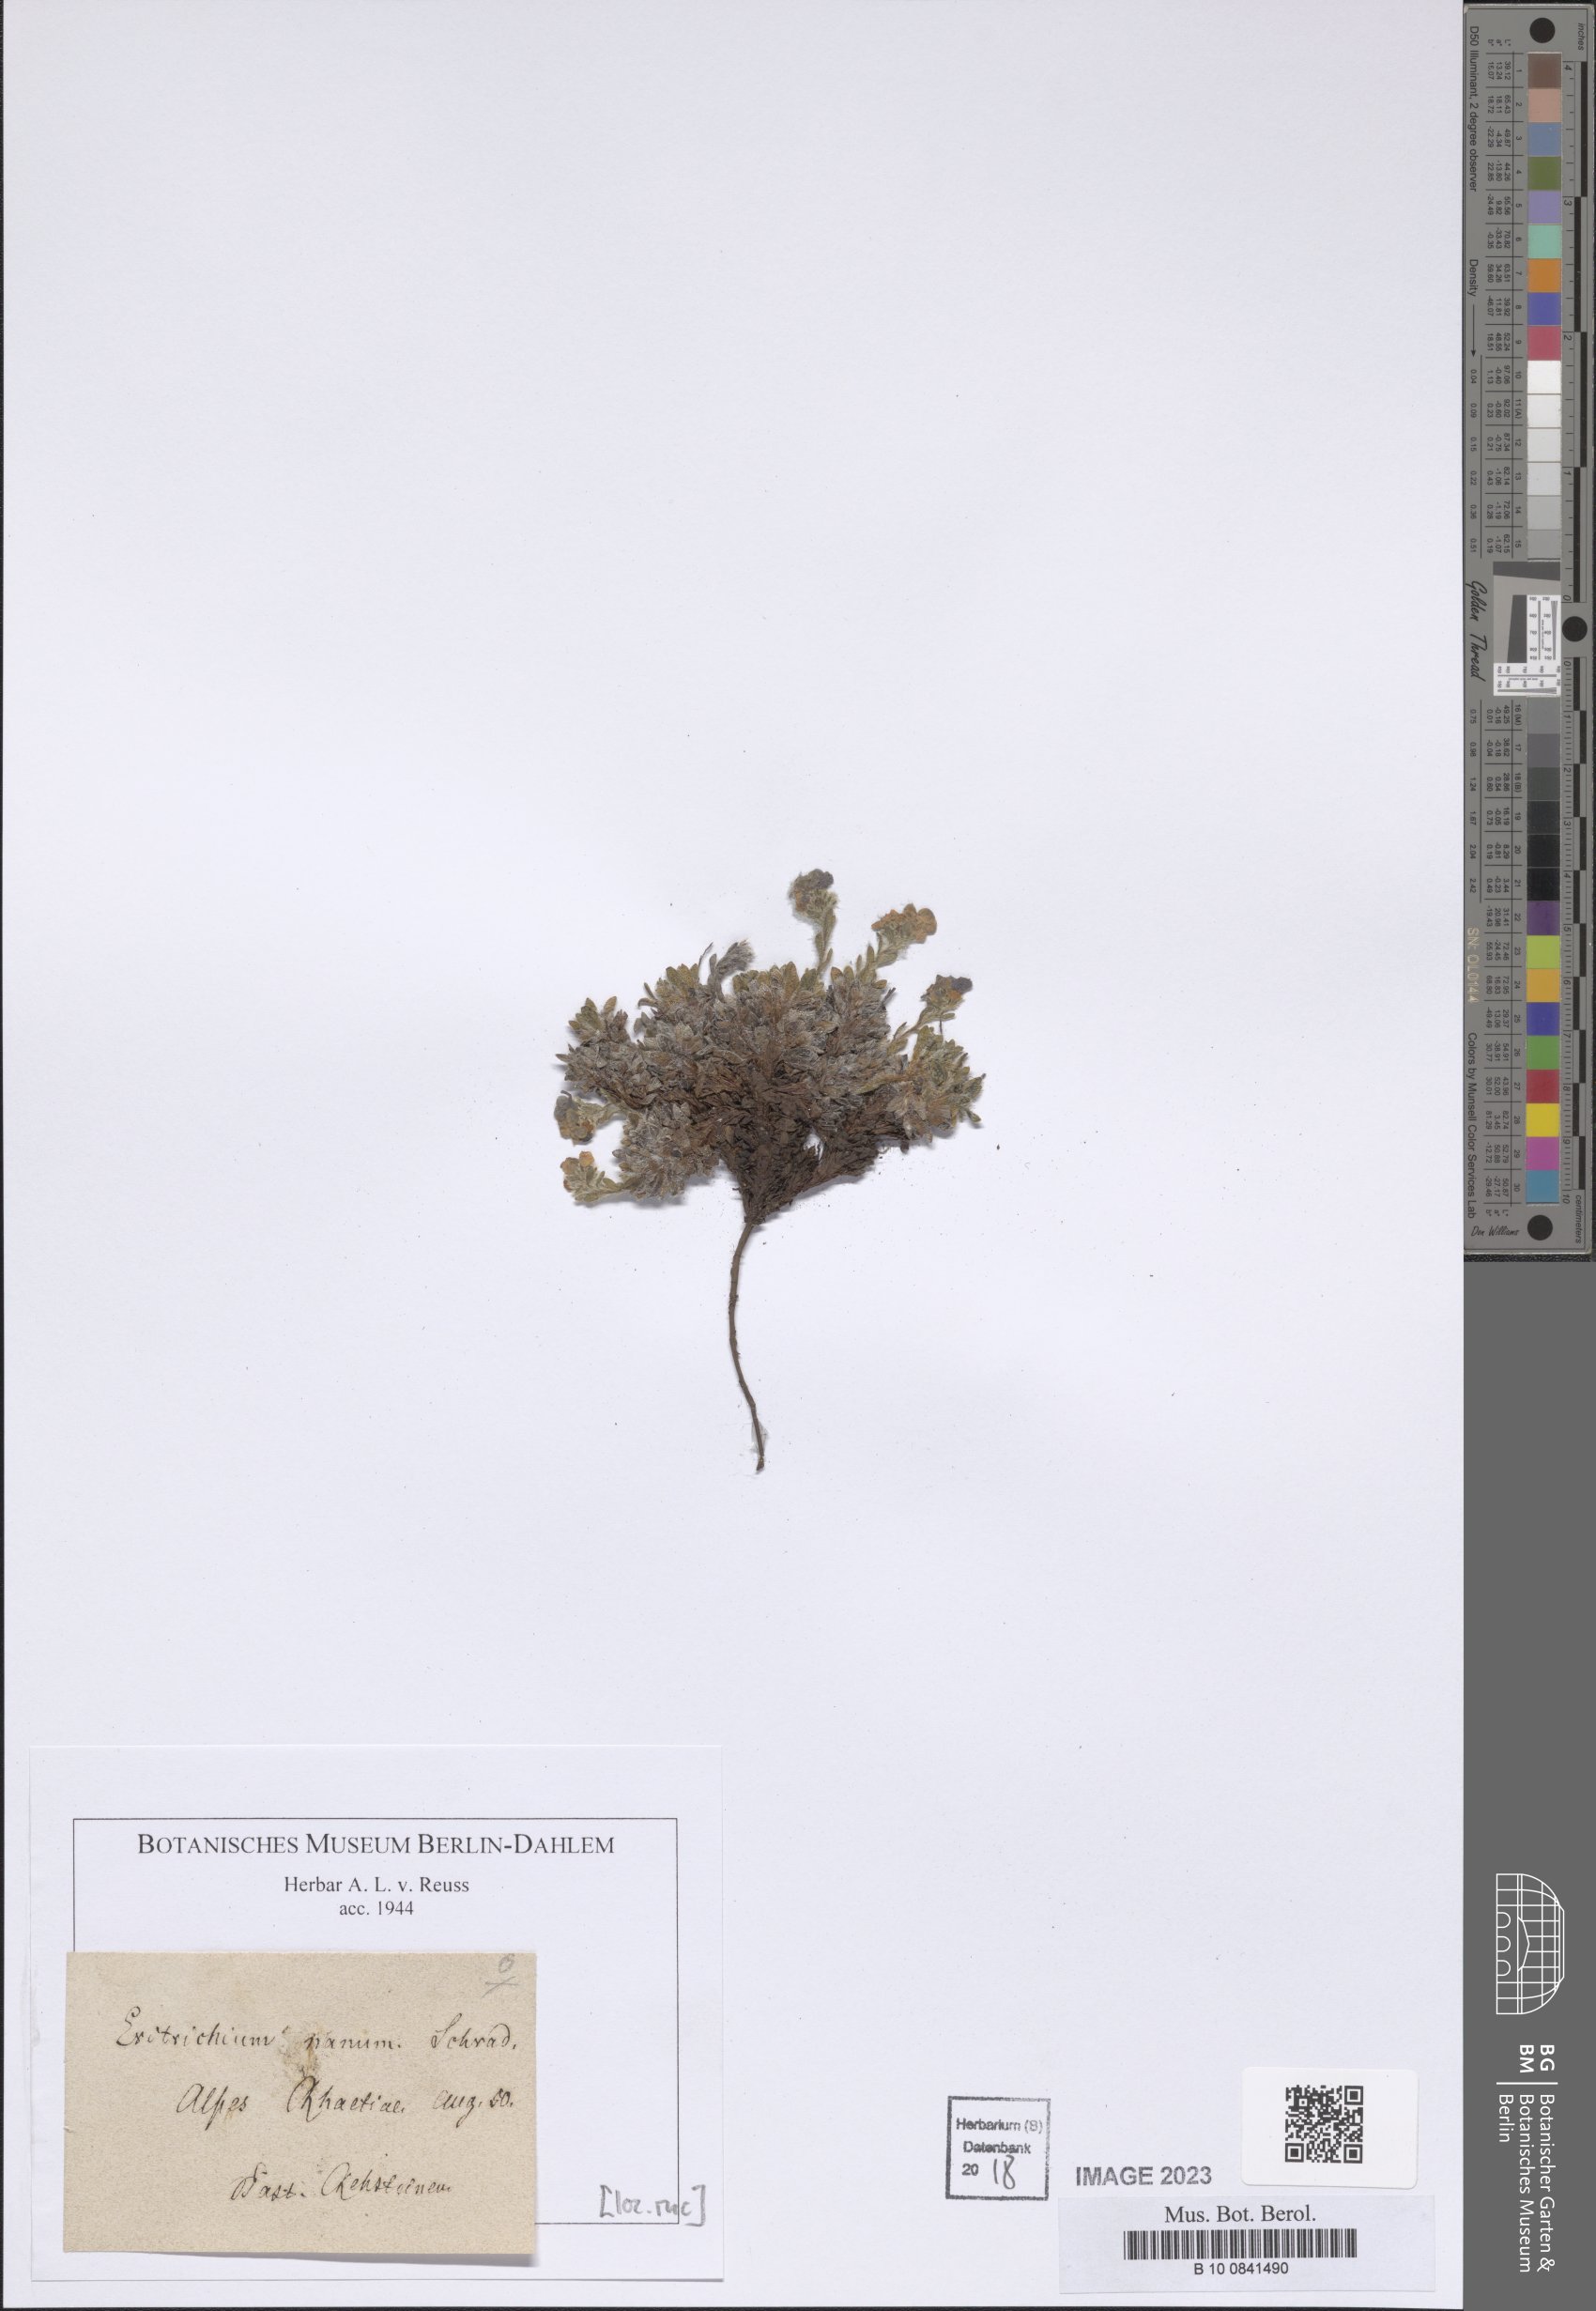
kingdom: Plantae
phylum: Tracheophyta
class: Magnoliopsida
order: Boraginales
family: Boraginaceae
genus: Eritrichium
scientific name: Eritrichium nanum
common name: King-of-the-alps
